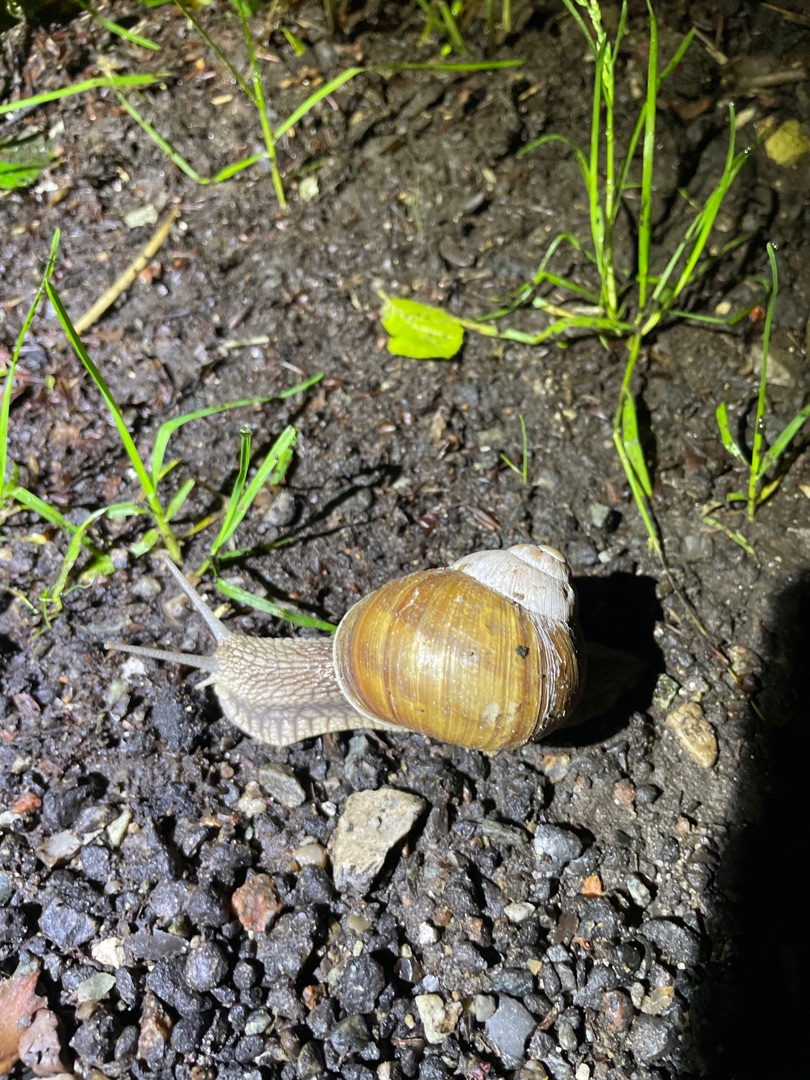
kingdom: Animalia
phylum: Mollusca
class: Gastropoda
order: Stylommatophora
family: Helicidae
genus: Helix
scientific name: Helix pomatia
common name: Vinbjergsnegl
